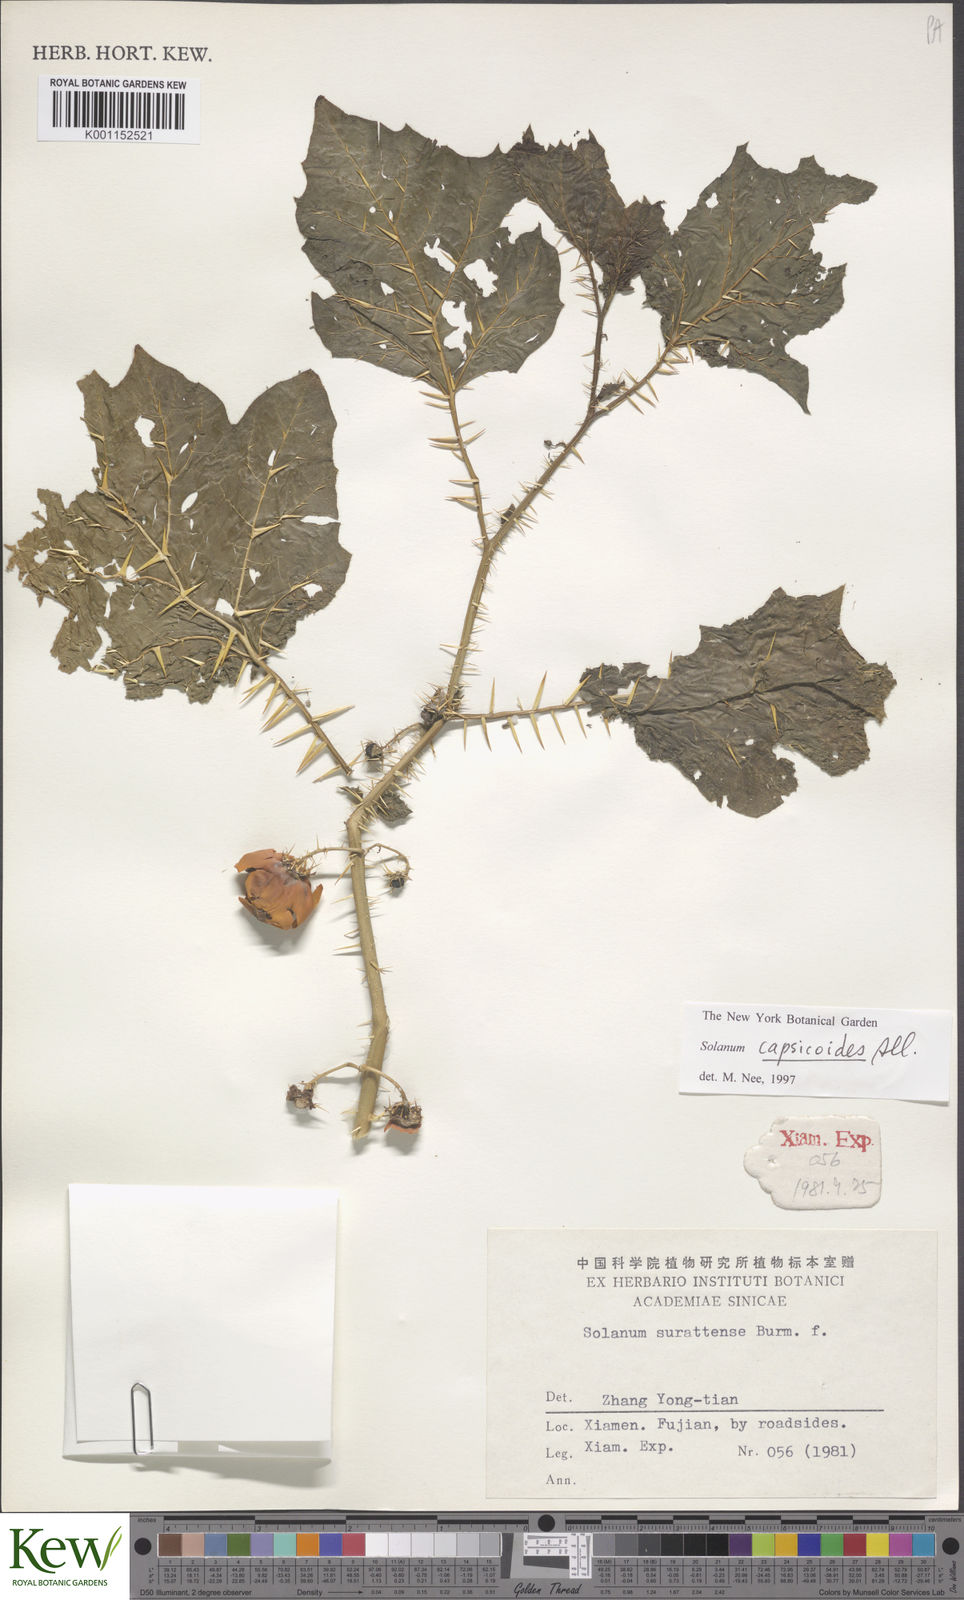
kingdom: Plantae
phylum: Tracheophyta
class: Magnoliopsida
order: Solanales
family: Solanaceae
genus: Solanum
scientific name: Solanum capsicoides
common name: Cockroach berry
